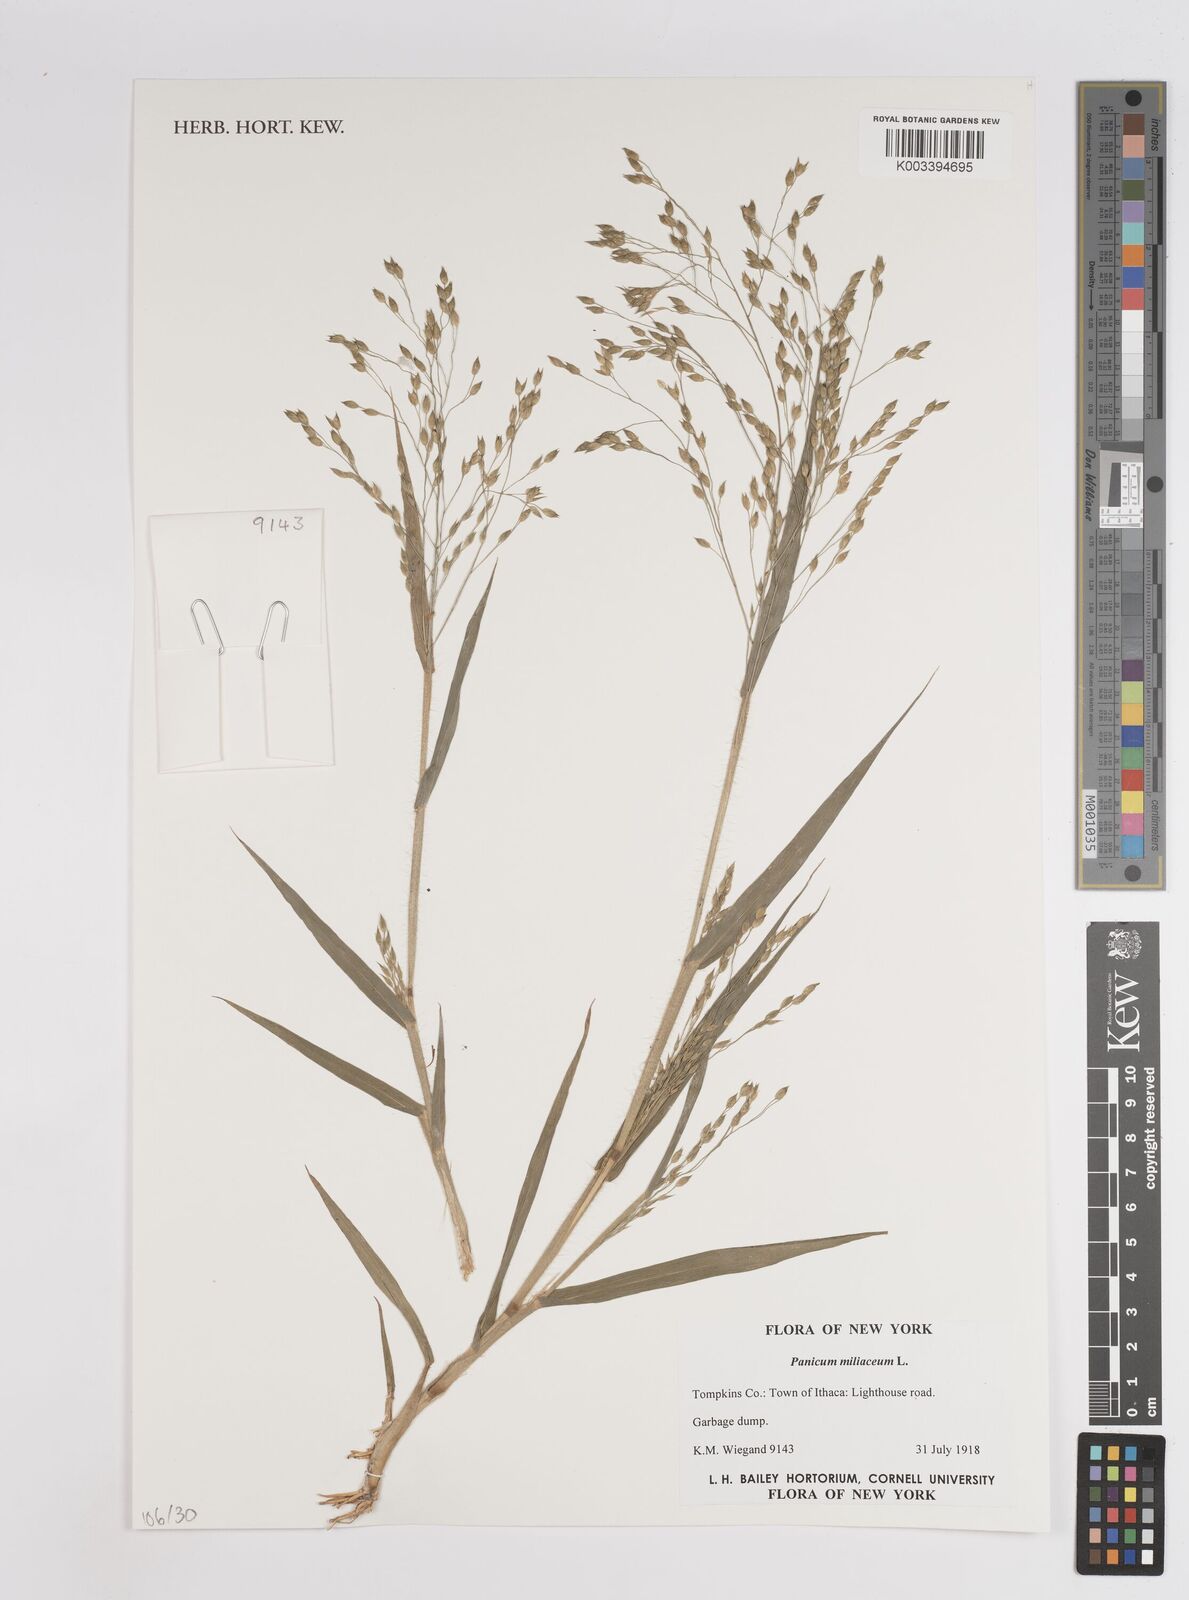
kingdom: Plantae
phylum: Tracheophyta
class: Liliopsida
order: Poales
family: Poaceae
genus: Panicum
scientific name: Panicum miliaceum
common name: Common millet
